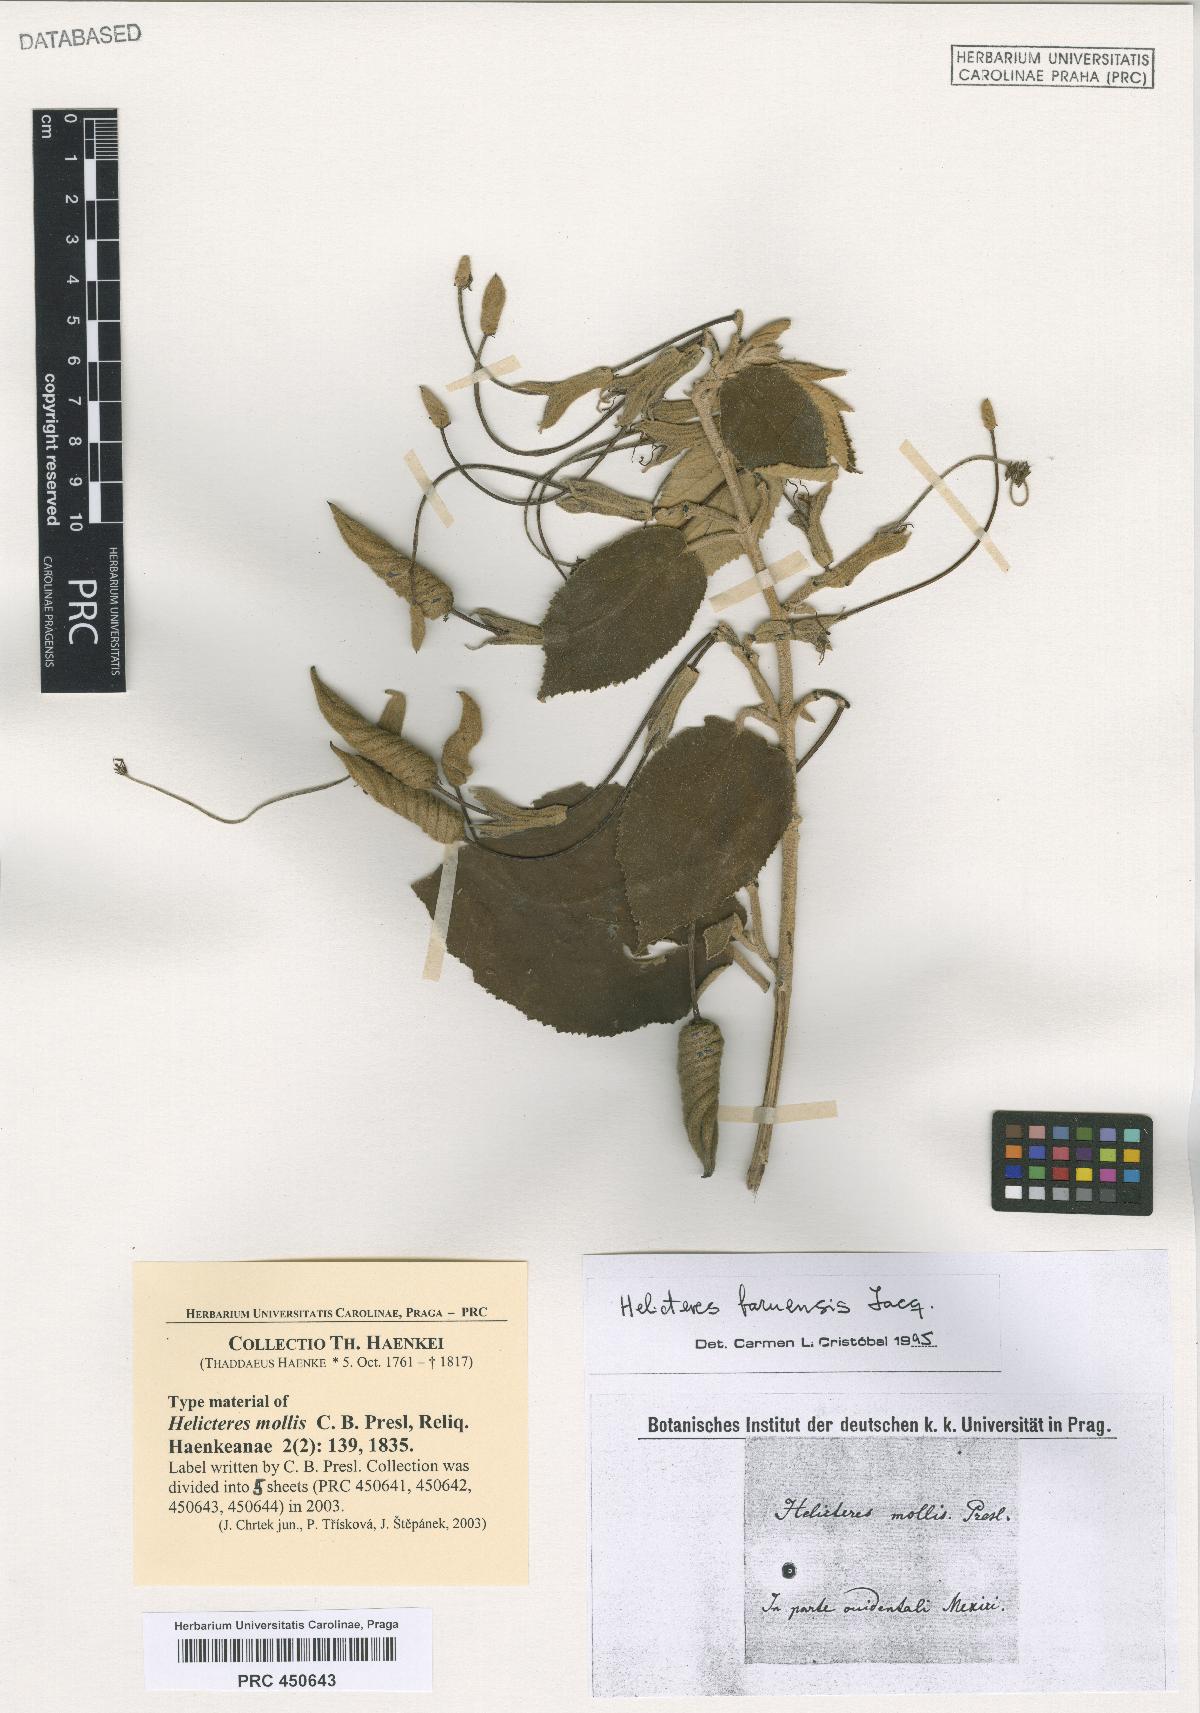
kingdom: Plantae
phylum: Tracheophyta
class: Magnoliopsida
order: Malvales
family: Malvaceae
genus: Helicteres
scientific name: Helicteres baruensis
